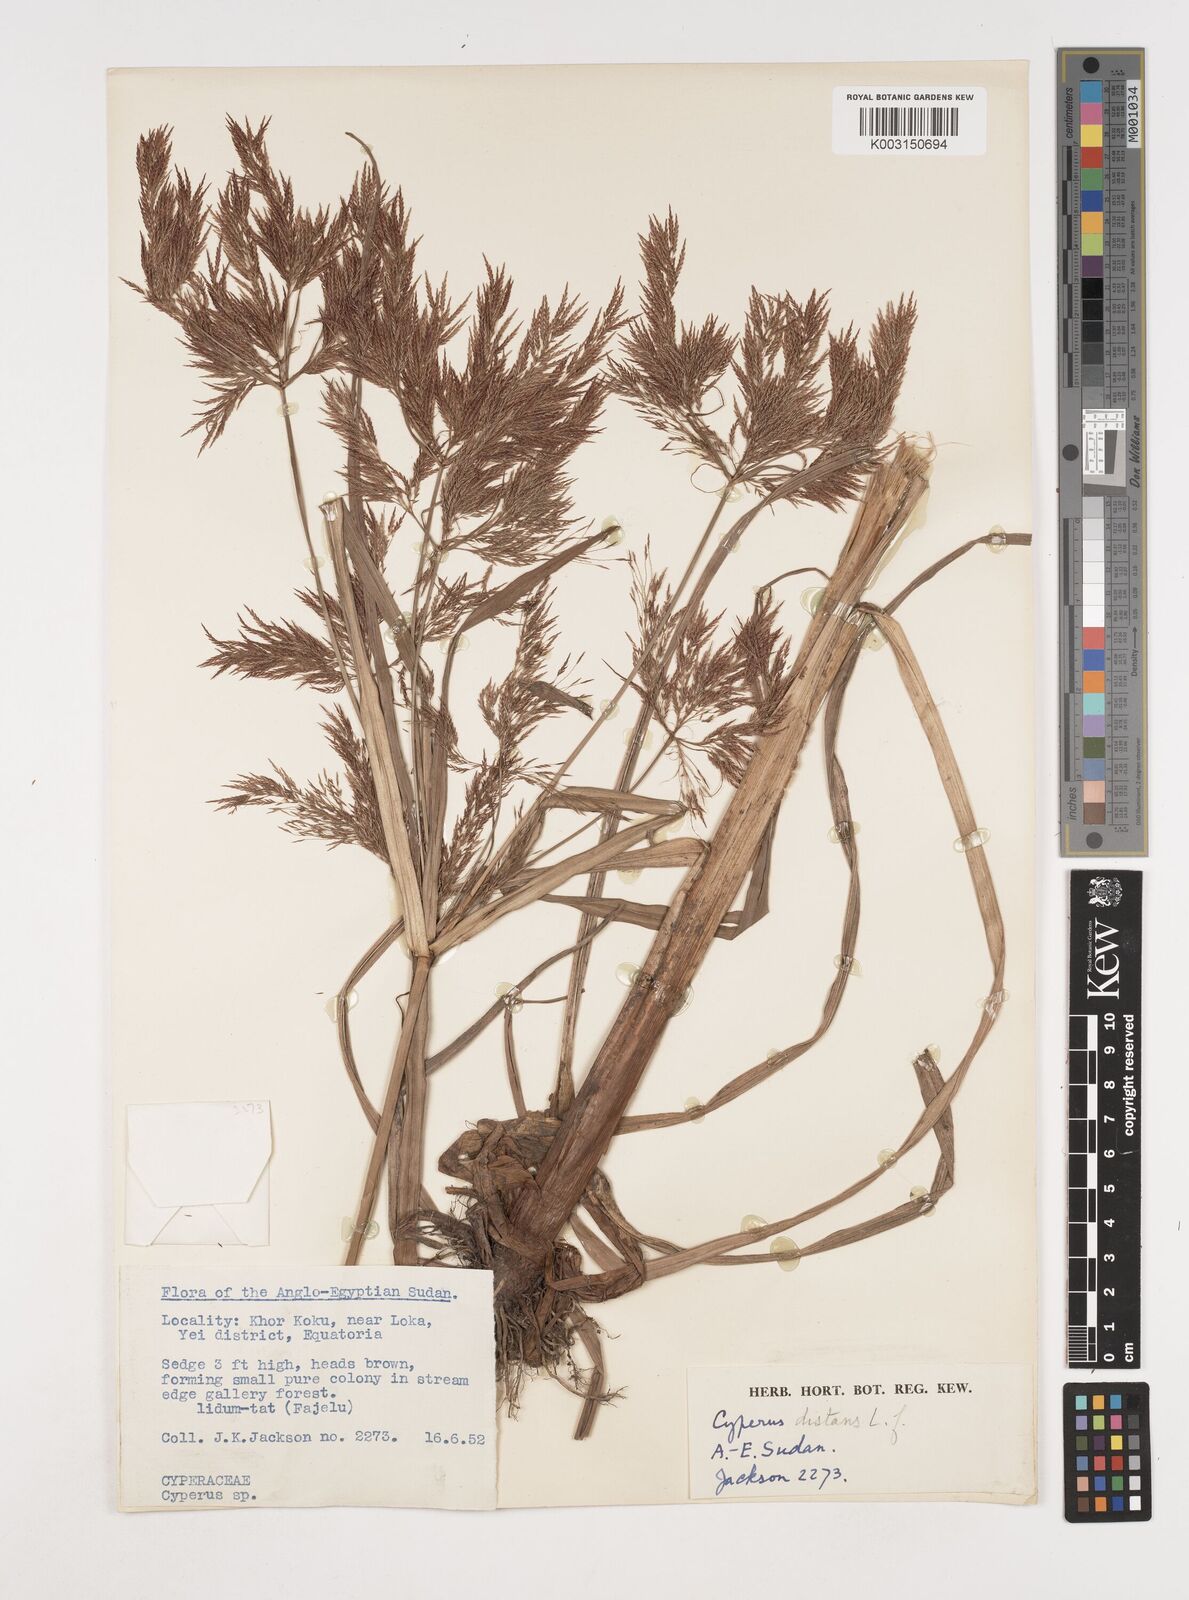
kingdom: Plantae
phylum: Tracheophyta
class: Liliopsida
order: Poales
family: Cyperaceae
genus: Cyperus
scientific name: Cyperus distans
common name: Slender cyperus
